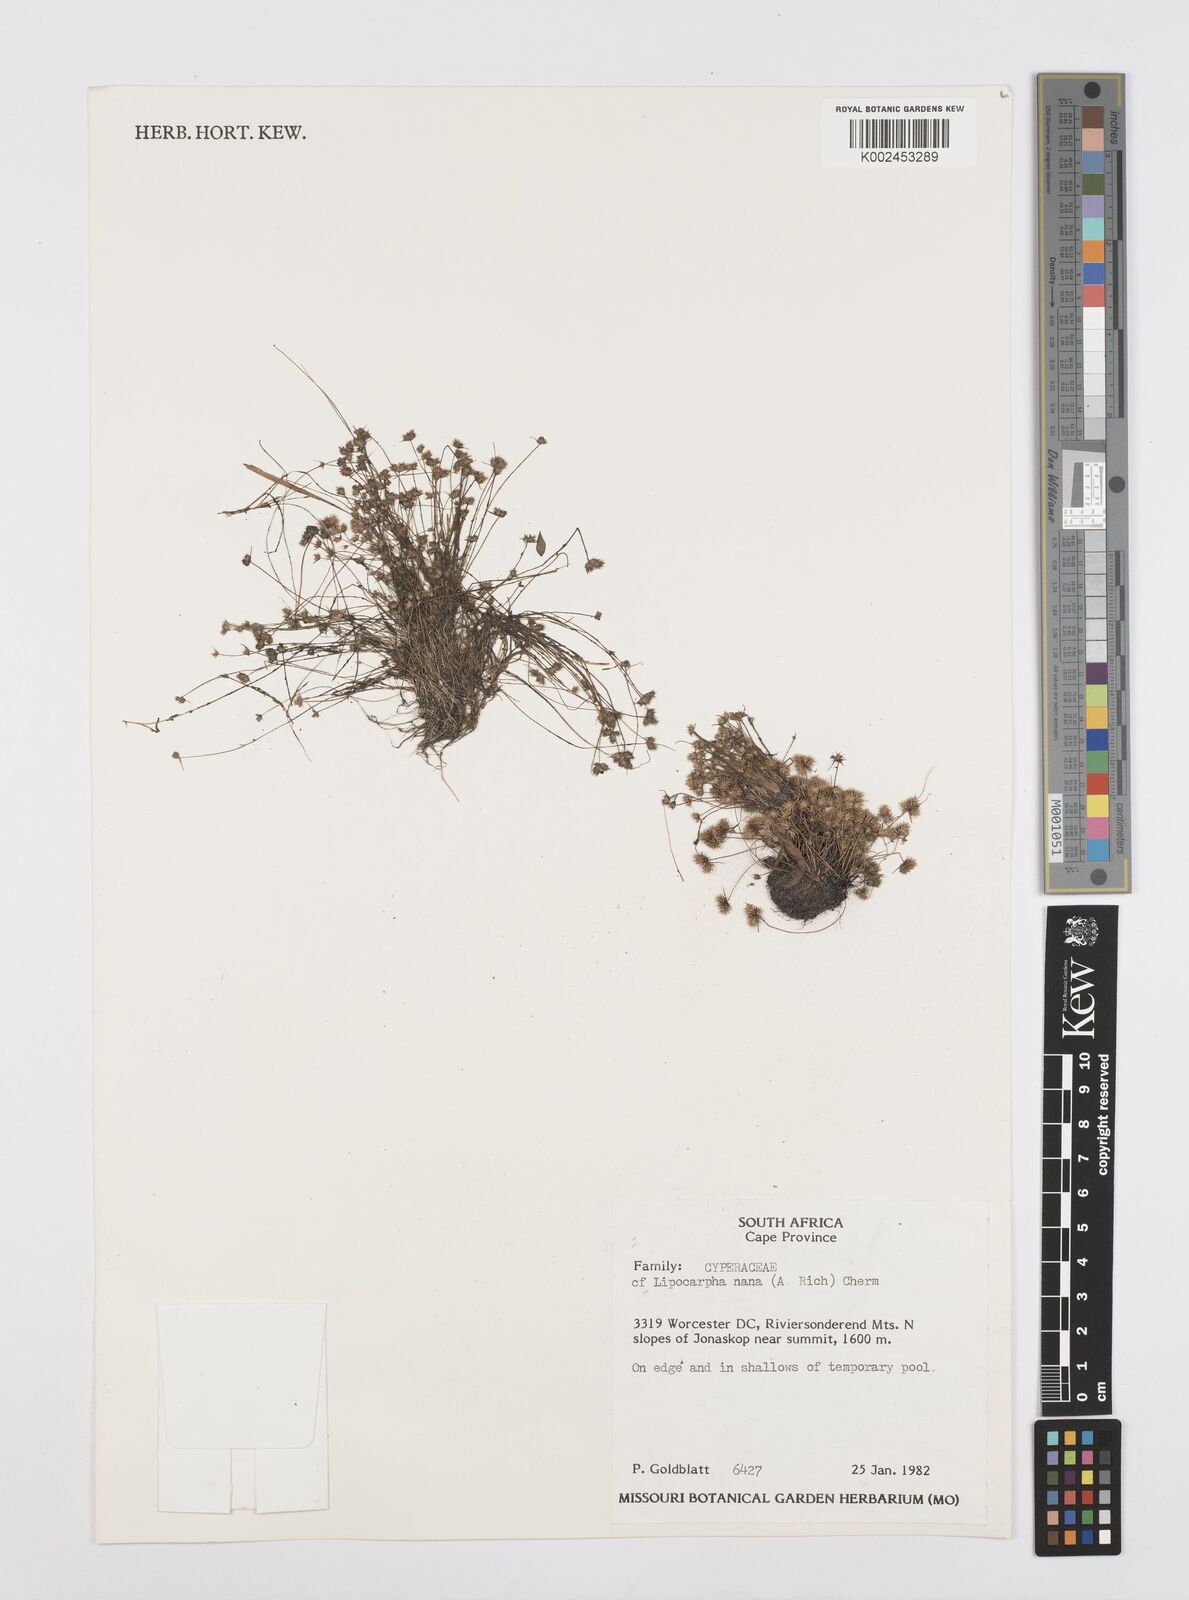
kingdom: Plantae
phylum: Tracheophyta
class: Liliopsida
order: Poales
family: Cyperaceae
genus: Cyperus
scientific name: Cyperus nanus
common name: Indian flatsedge
